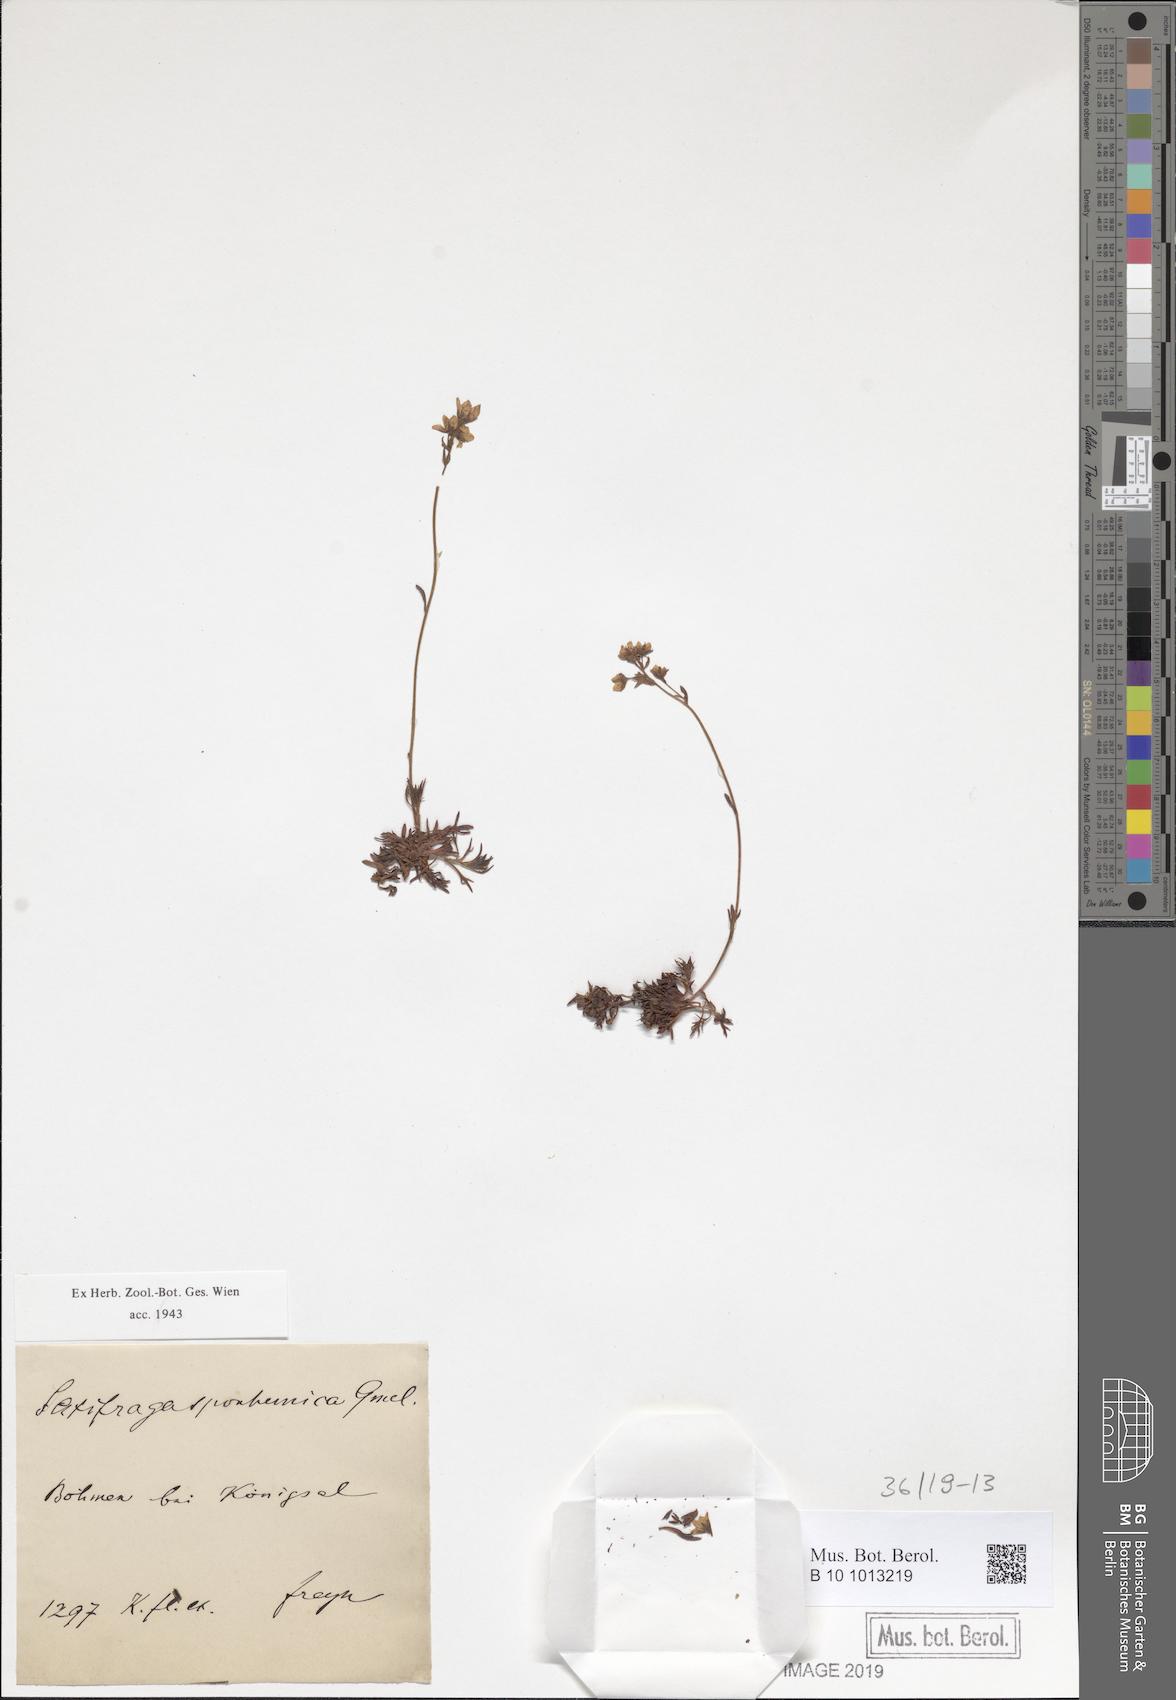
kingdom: Plantae
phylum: Tracheophyta
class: Magnoliopsida
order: Saxifragales
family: Saxifragaceae
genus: Saxifraga
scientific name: Saxifraga rosacea
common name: Irish saxifrage
